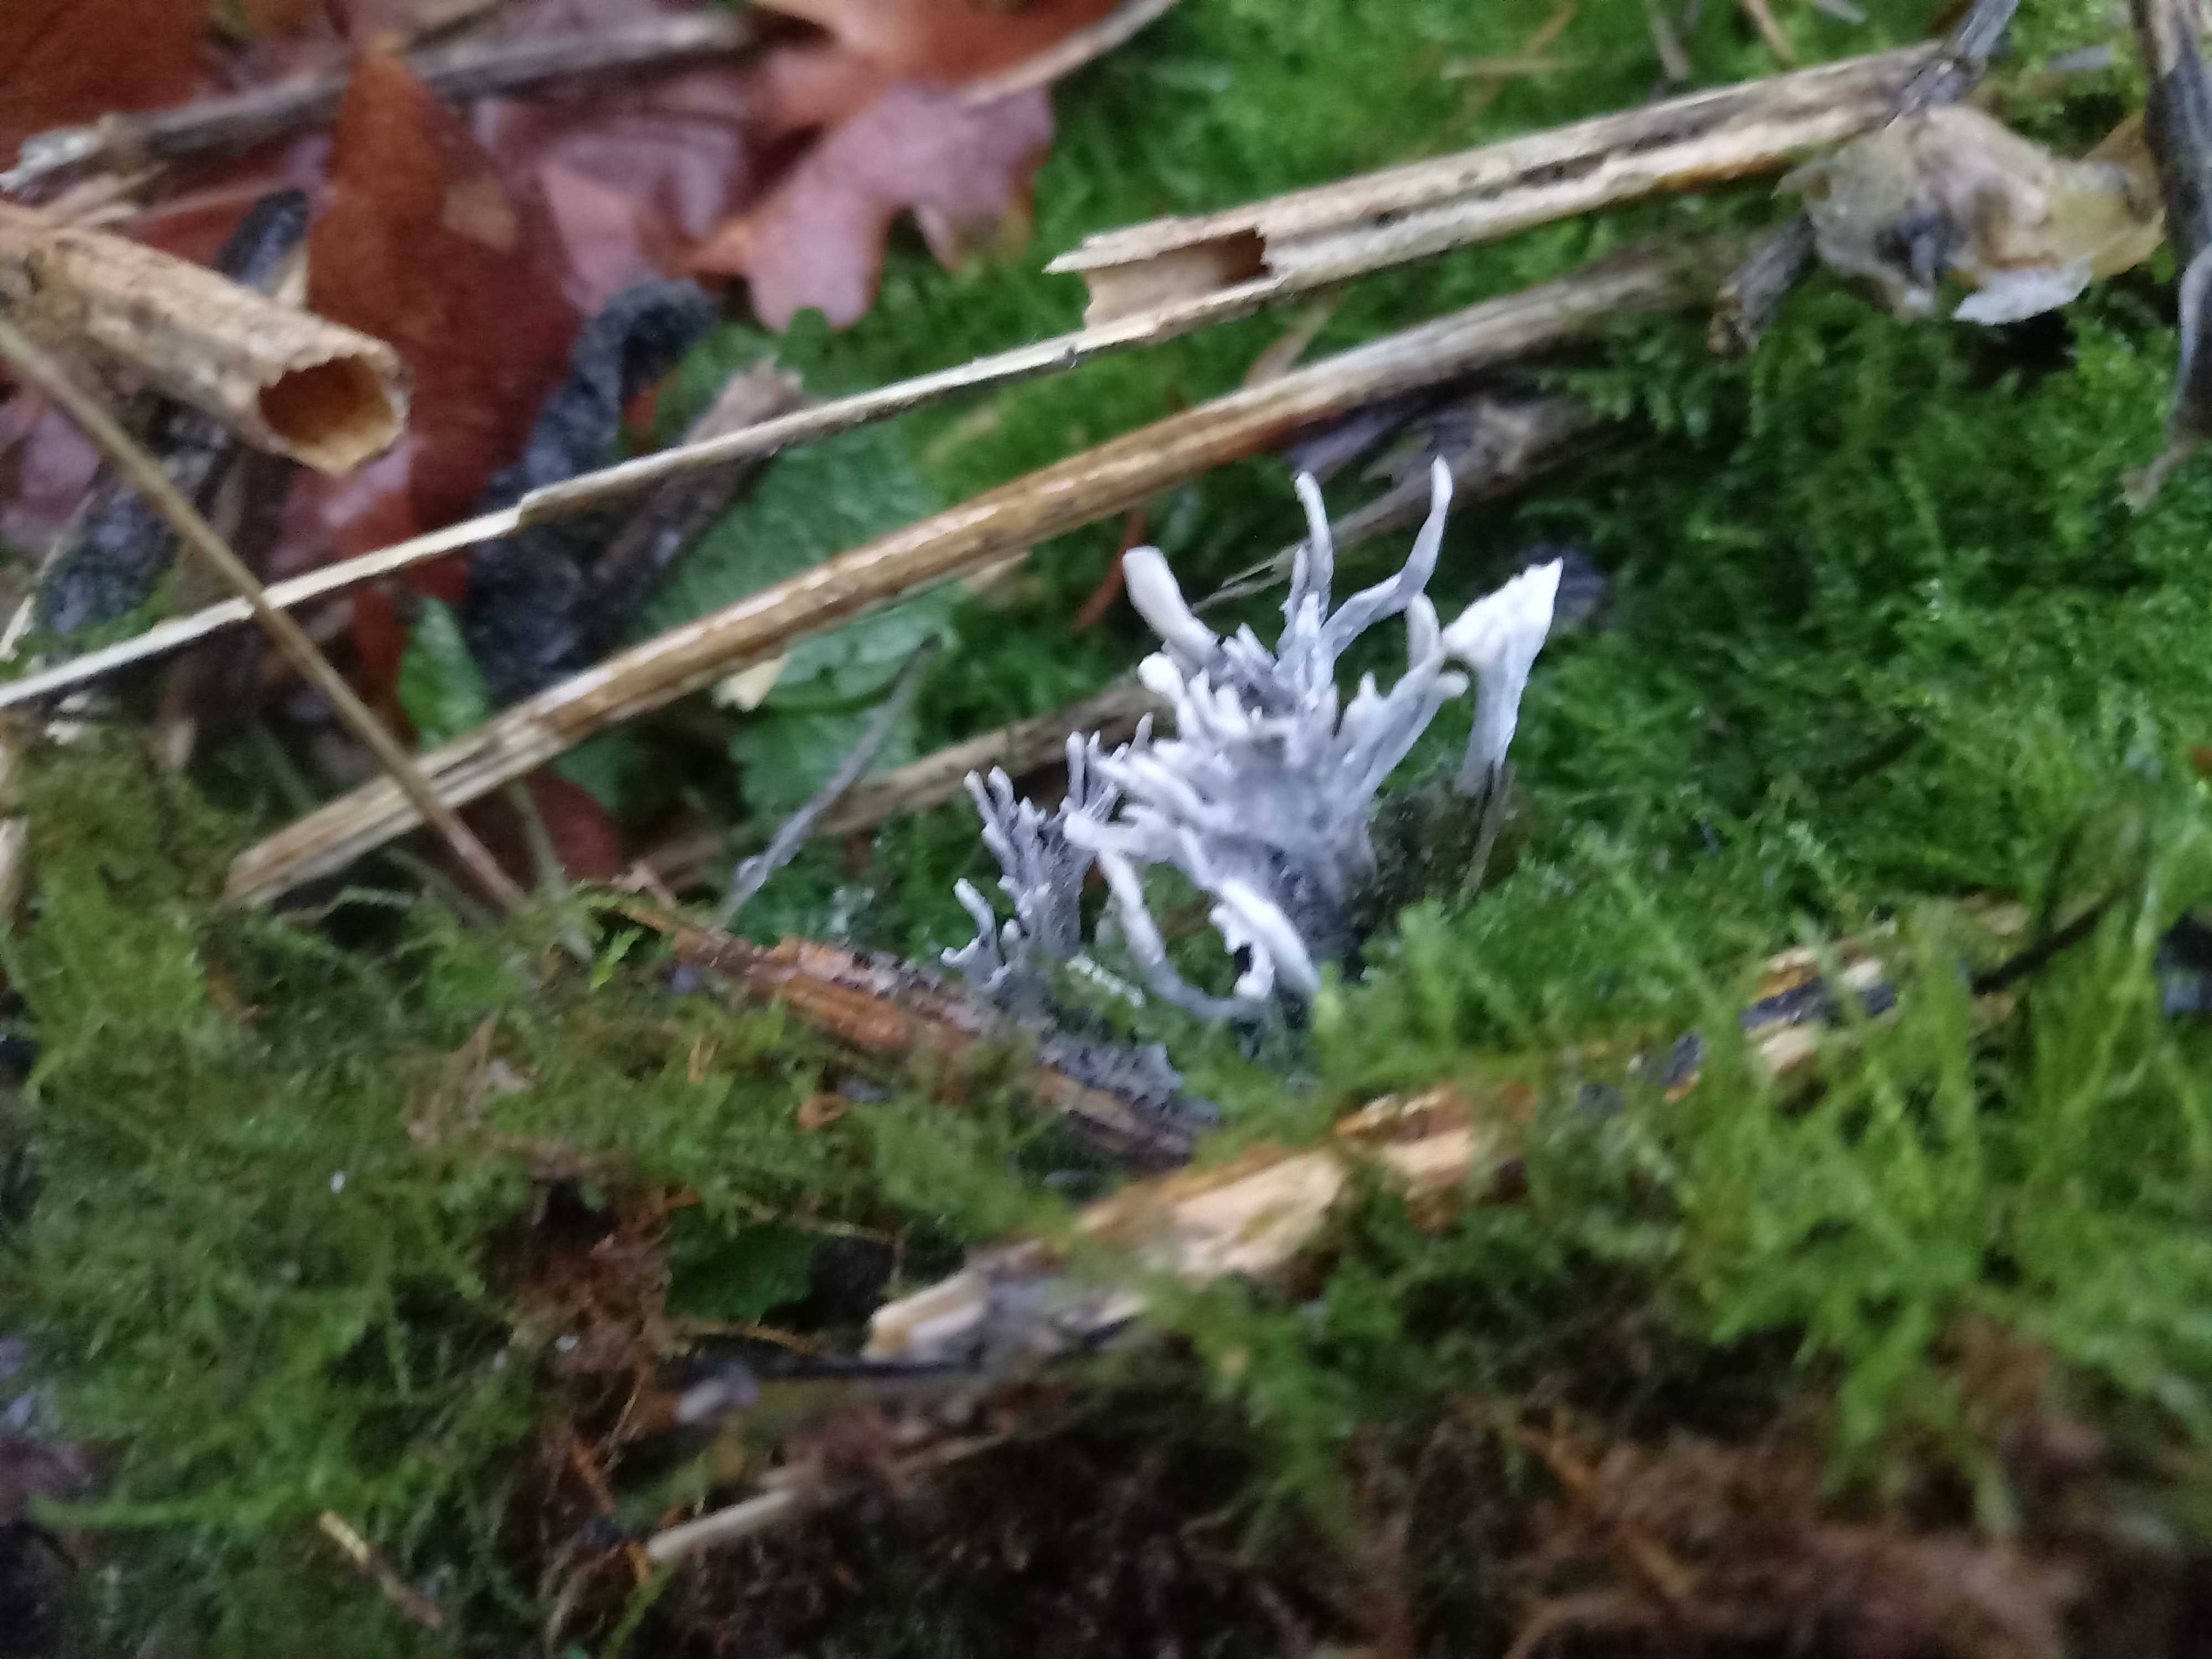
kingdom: Fungi
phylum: Ascomycota
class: Sordariomycetes
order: Xylariales
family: Xylariaceae
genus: Xylaria
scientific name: Xylaria hypoxylon
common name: grenet stødsvamp
